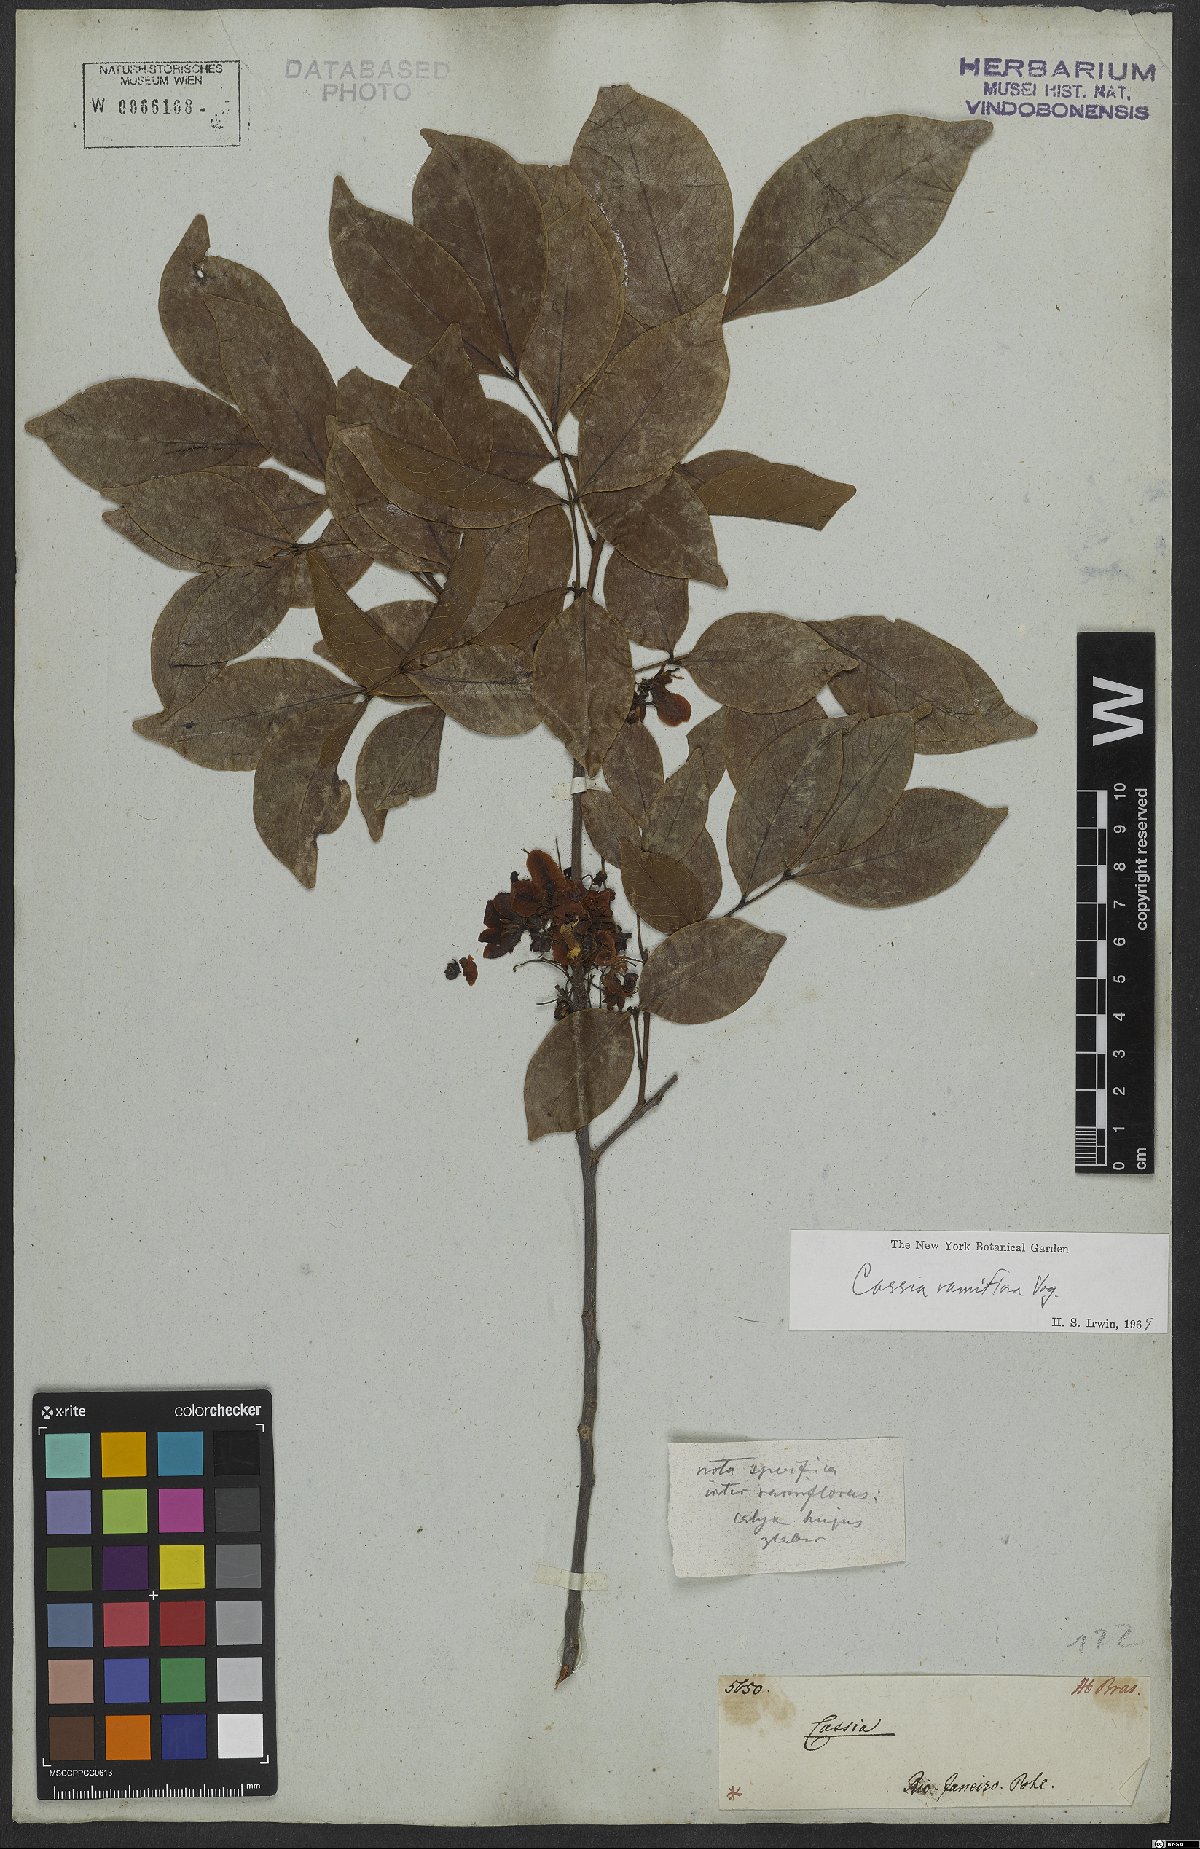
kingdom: Plantae
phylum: Tracheophyta
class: Magnoliopsida
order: Fabales
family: Fabaceae
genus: Chamaecrista
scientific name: Chamaecrista ensiformis
